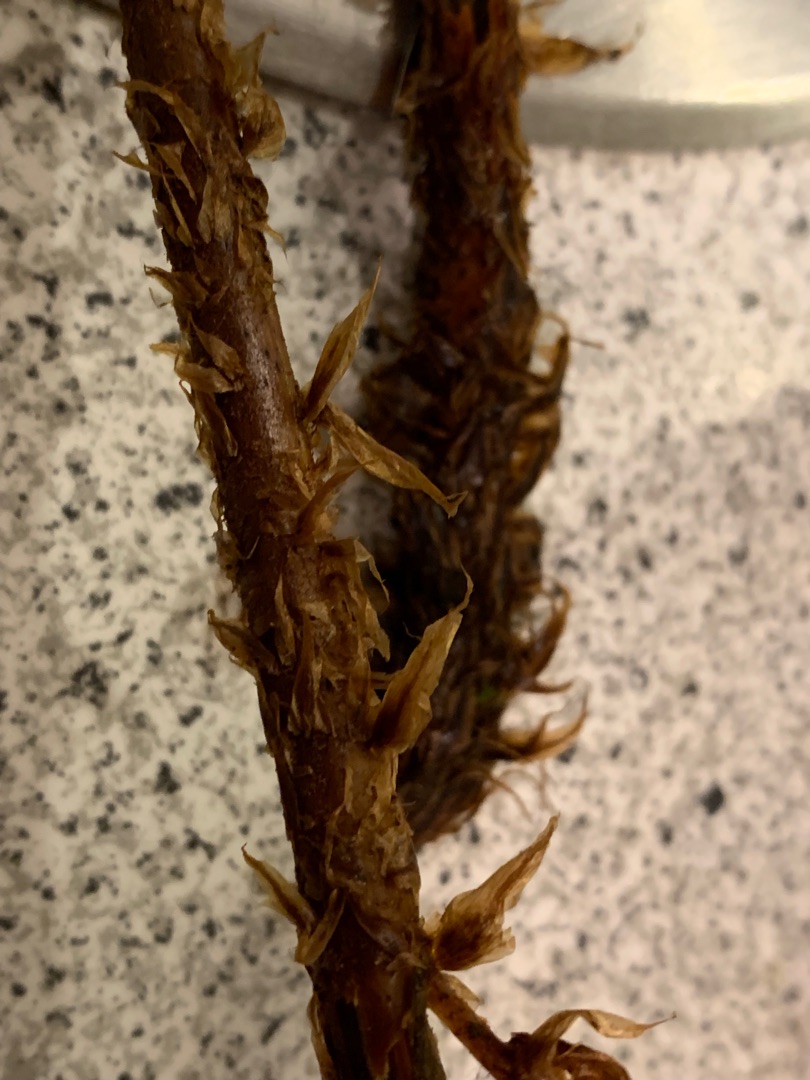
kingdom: Plantae
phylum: Tracheophyta
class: Polypodiopsida
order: Polypodiales
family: Dryopteridaceae
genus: Dryopteris
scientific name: Dryopteris dilatata
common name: Bredbladet mangeløv
